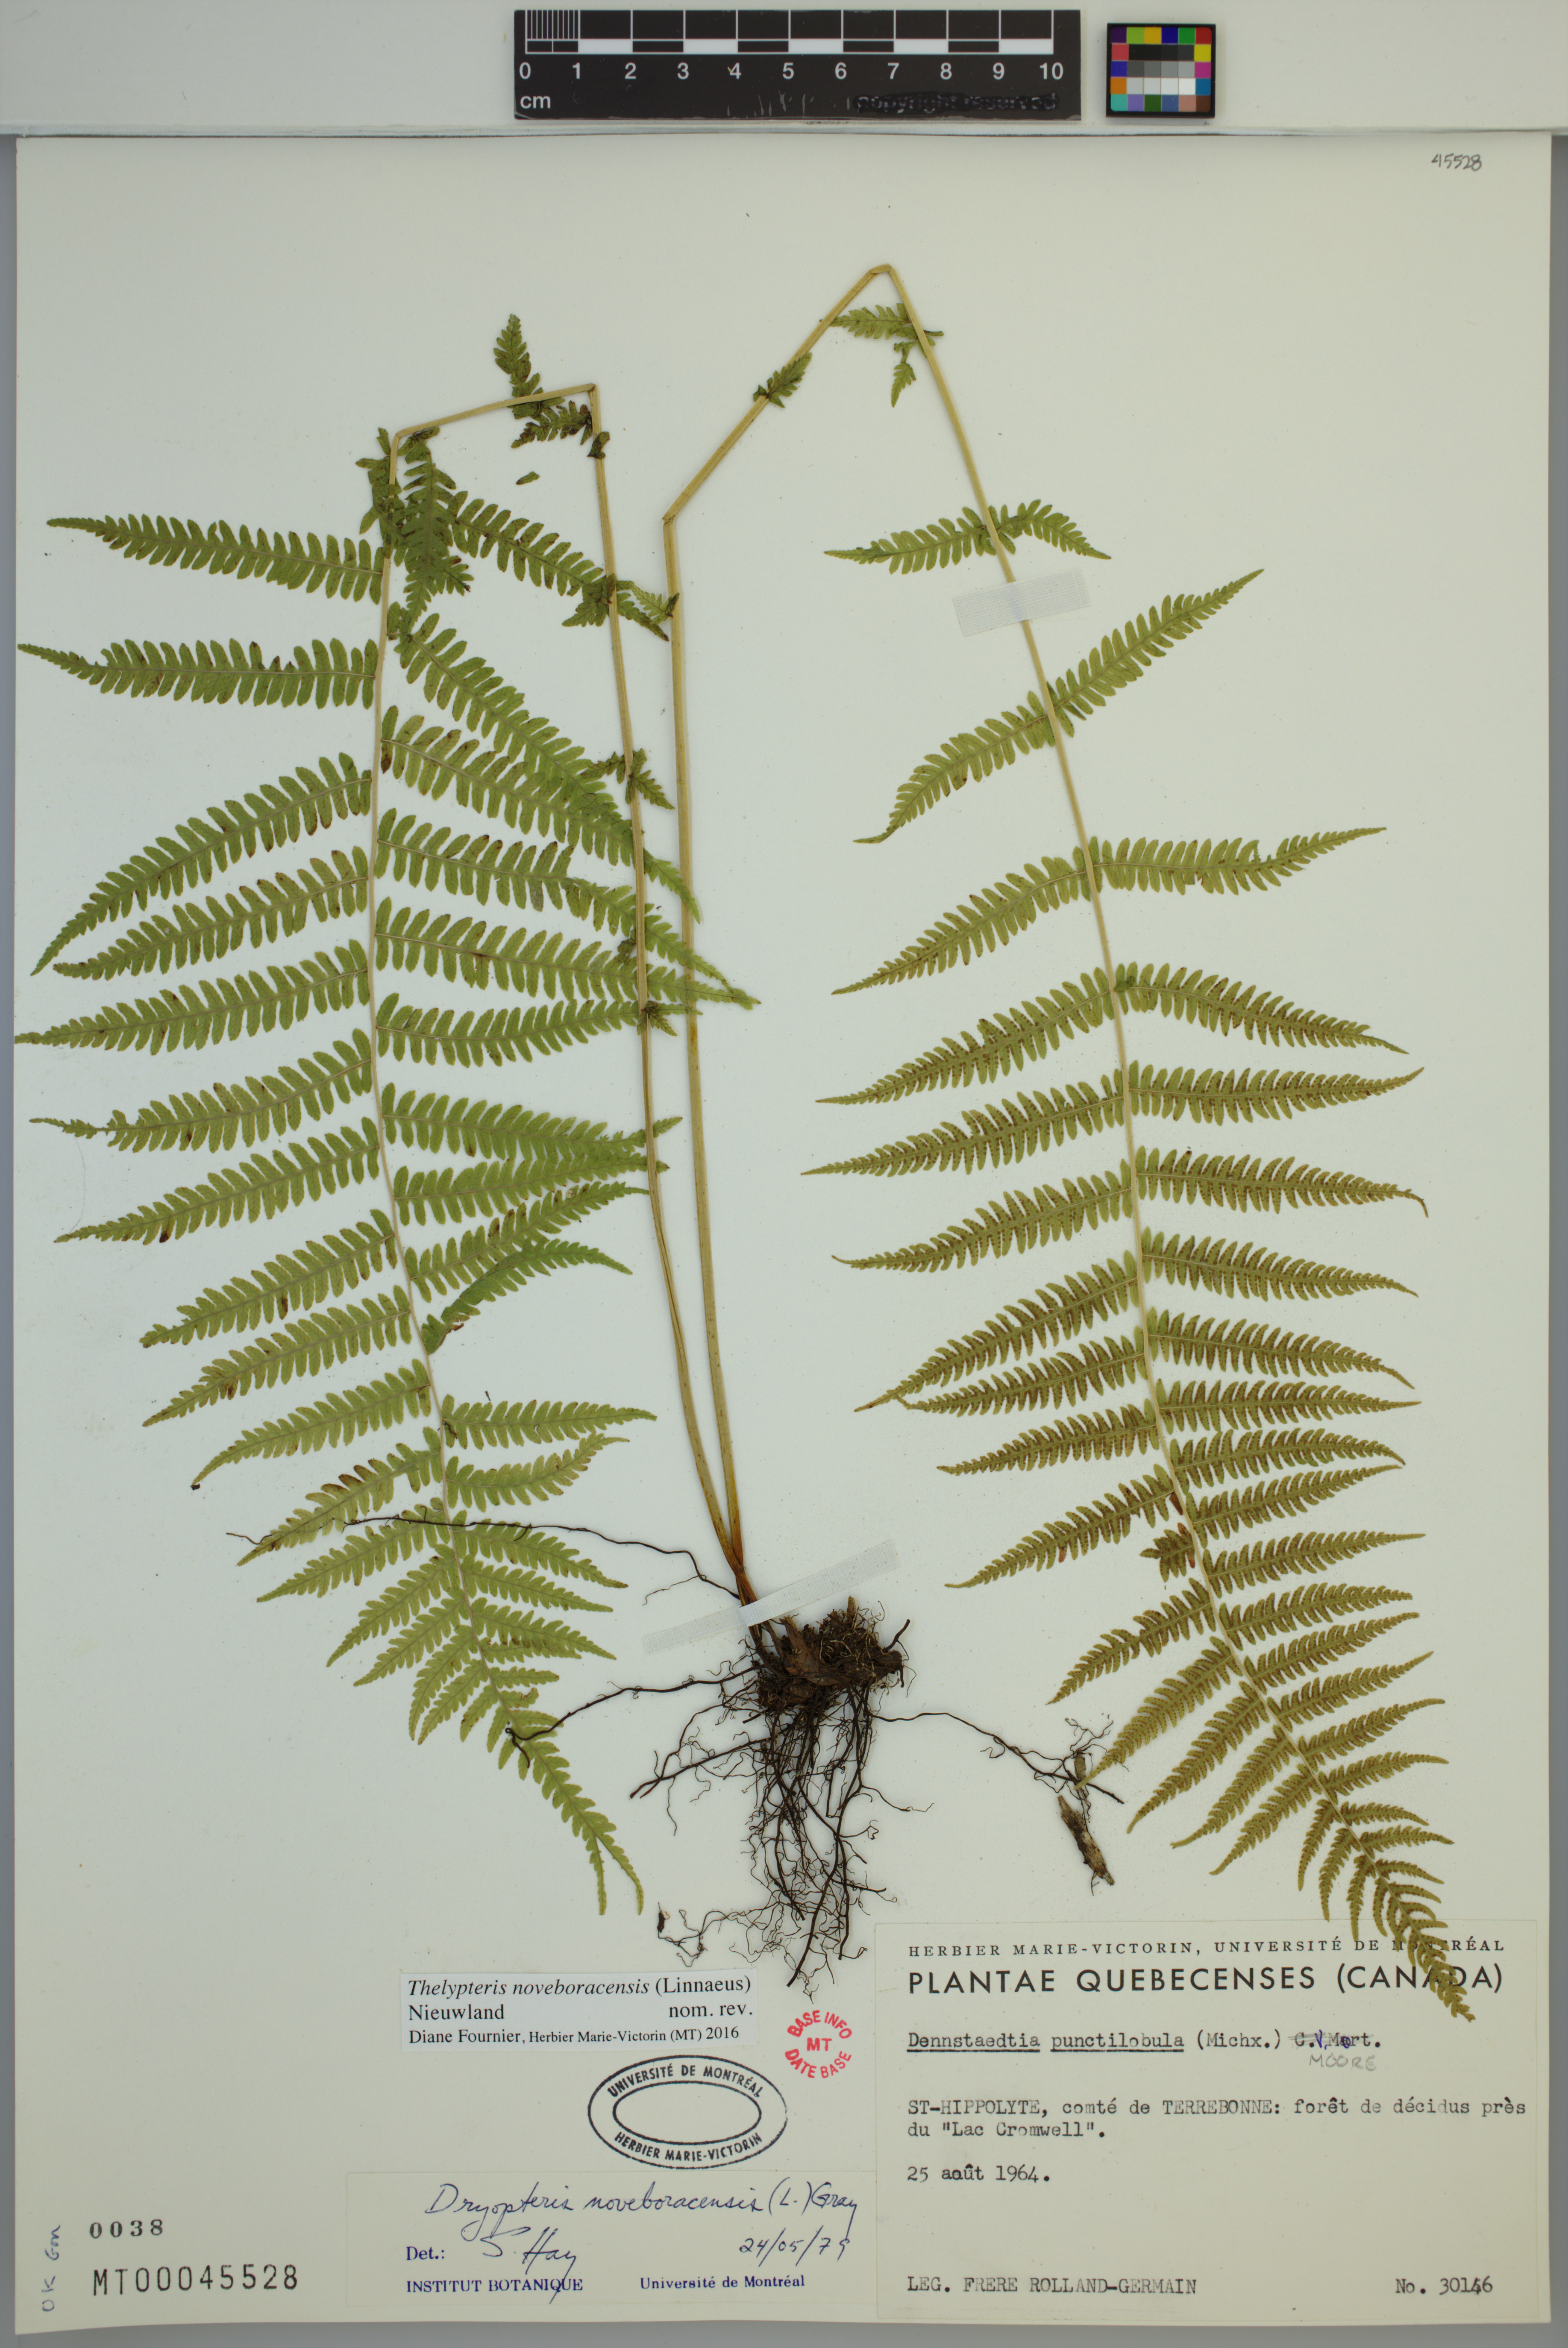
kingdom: Plantae
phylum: Tracheophyta
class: Polypodiopsida
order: Polypodiales
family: Thelypteridaceae
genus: Amauropelta
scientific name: Amauropelta noveboracensis
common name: New york fern
